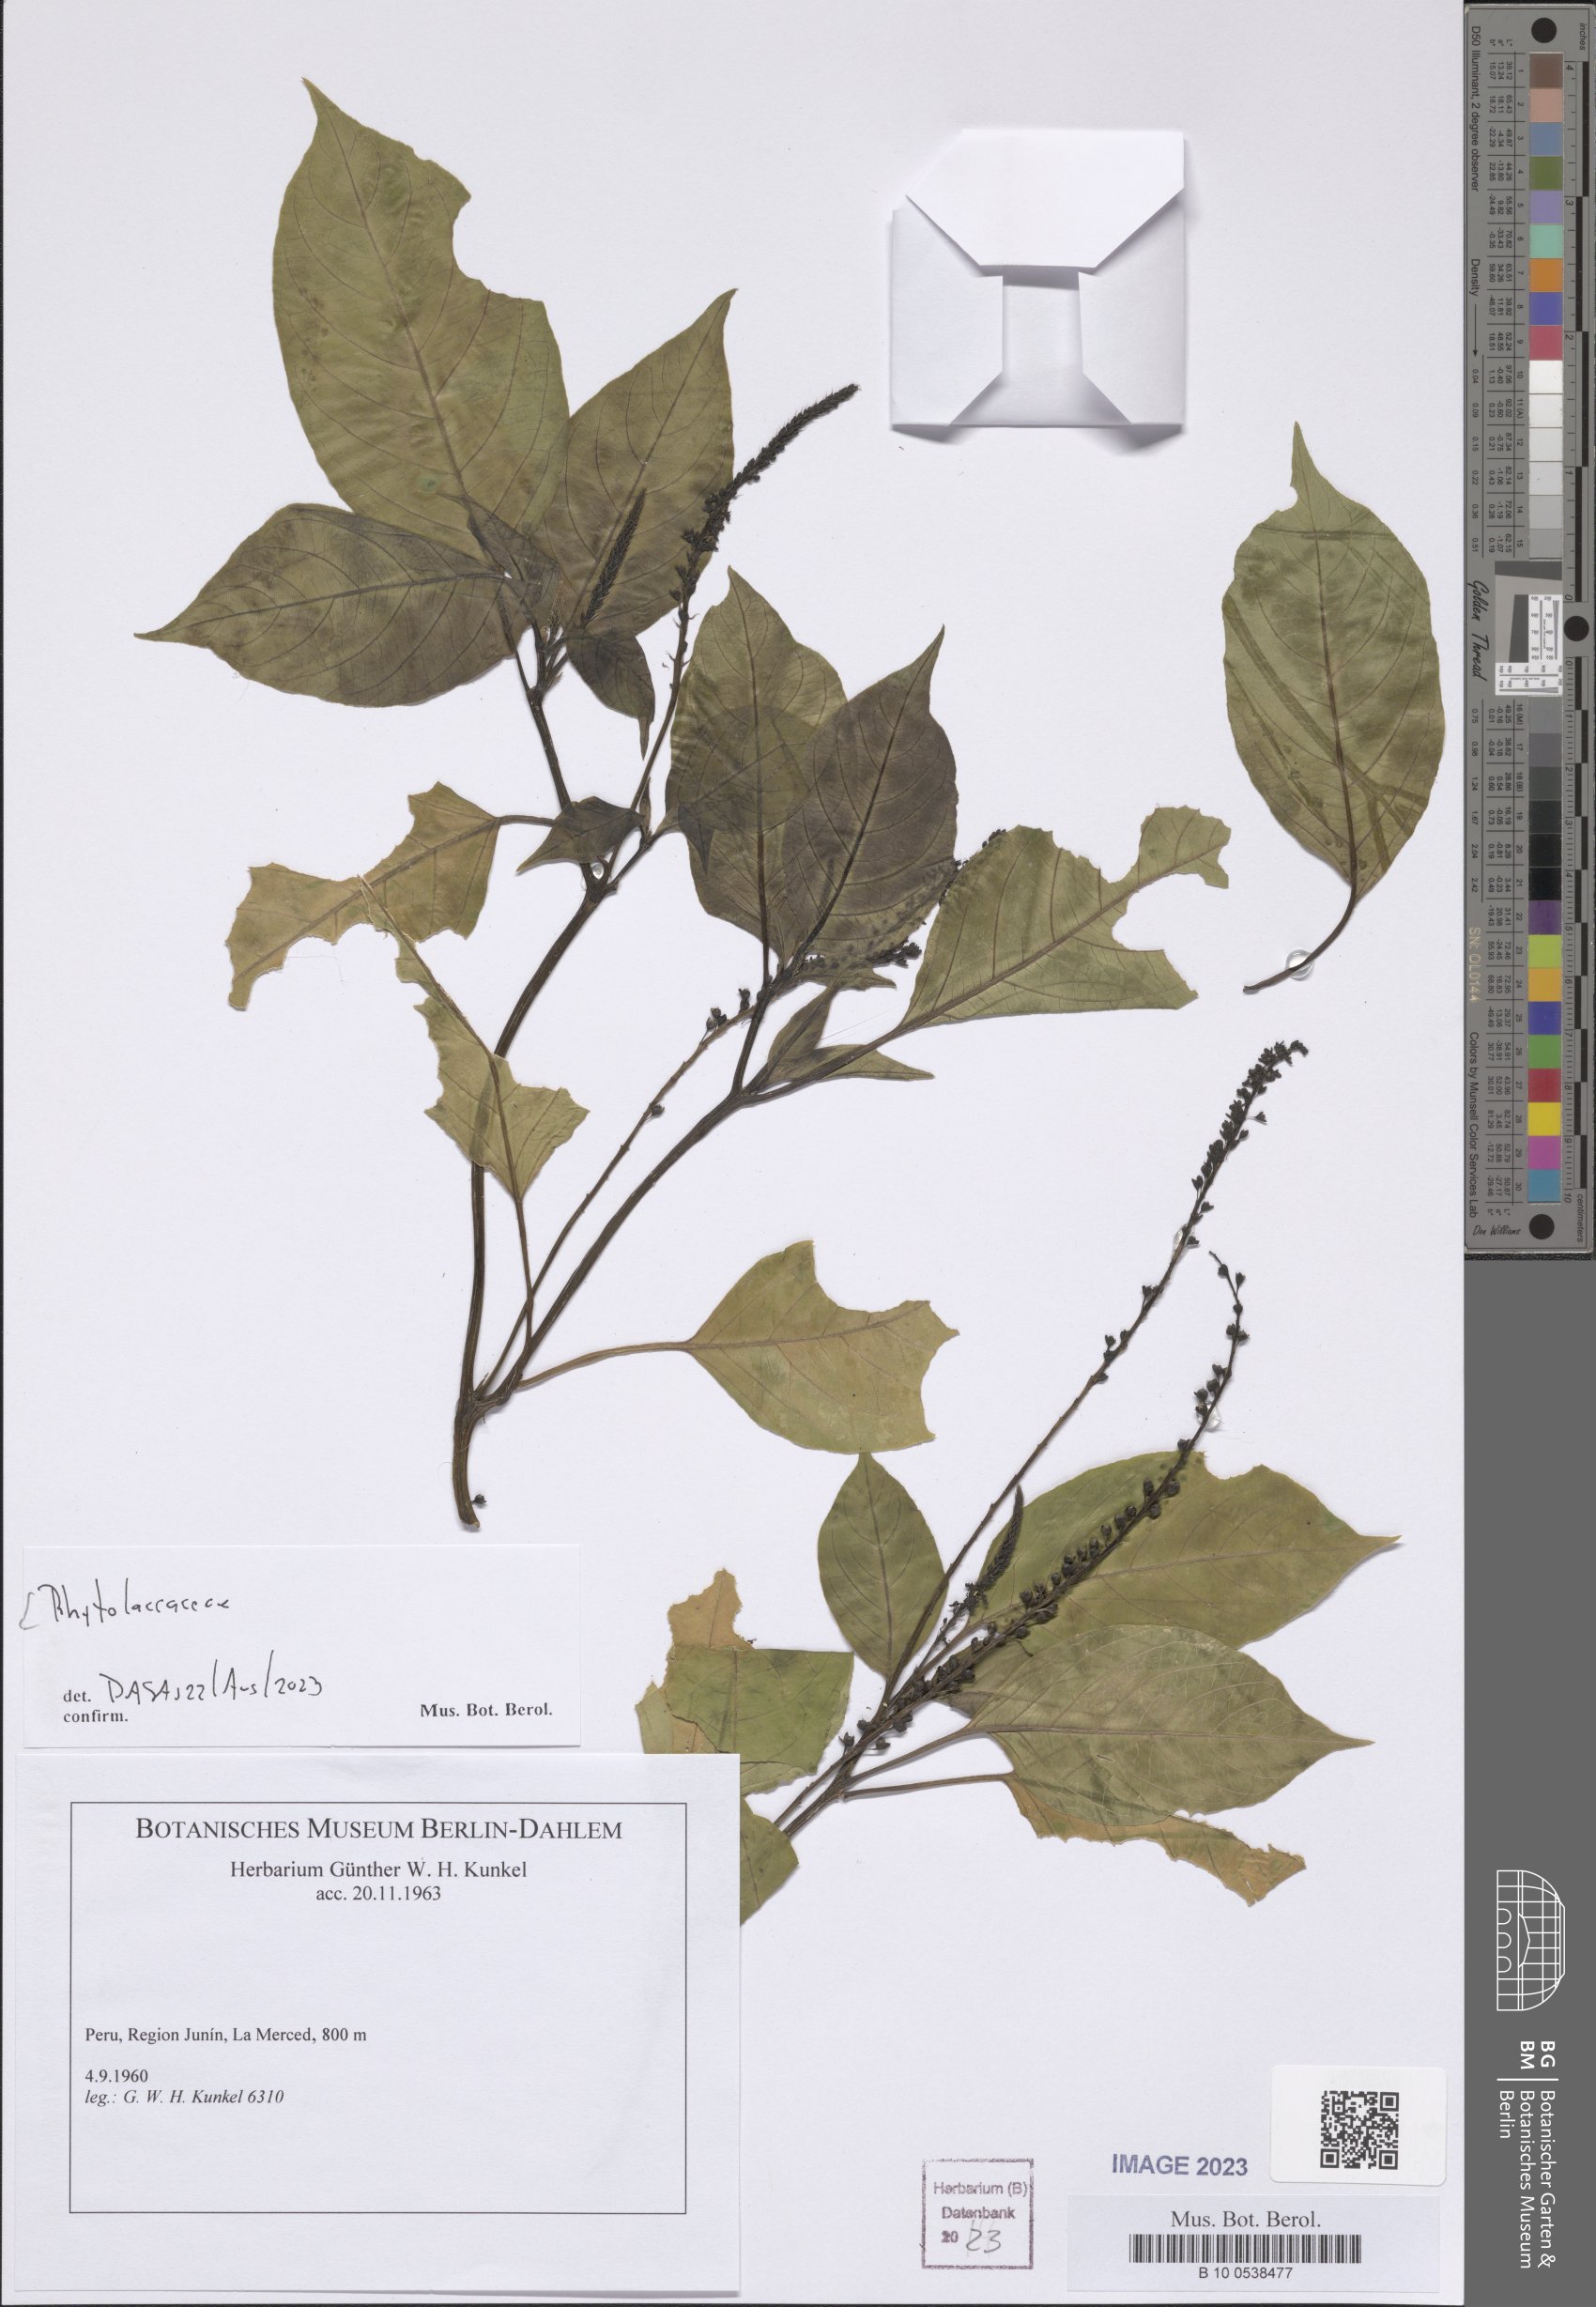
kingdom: Plantae
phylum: Tracheophyta
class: Magnoliopsida
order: Caryophyllales
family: Phytolaccaceae
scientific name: Phytolaccaceae
